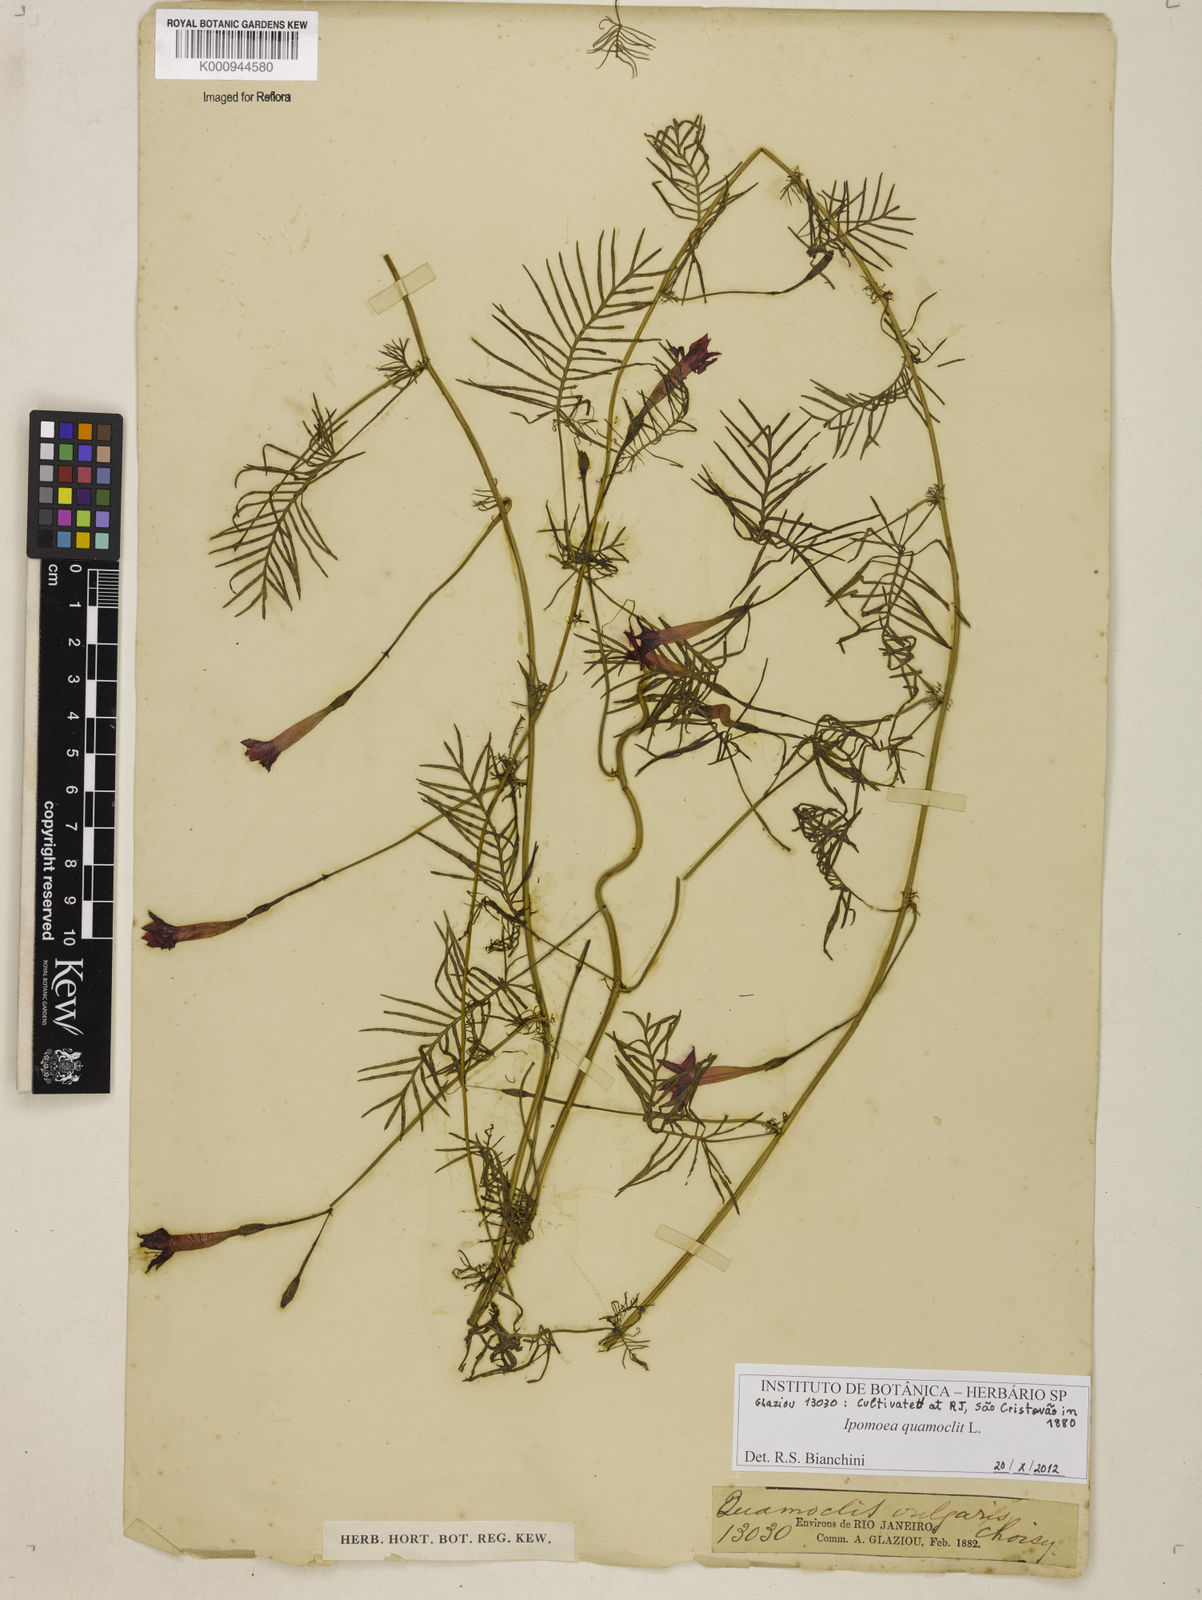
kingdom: Plantae
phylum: Tracheophyta
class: Magnoliopsida
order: Solanales
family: Convolvulaceae
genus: Ipomoea
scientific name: Ipomoea quamoclit
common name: Cypress vine
